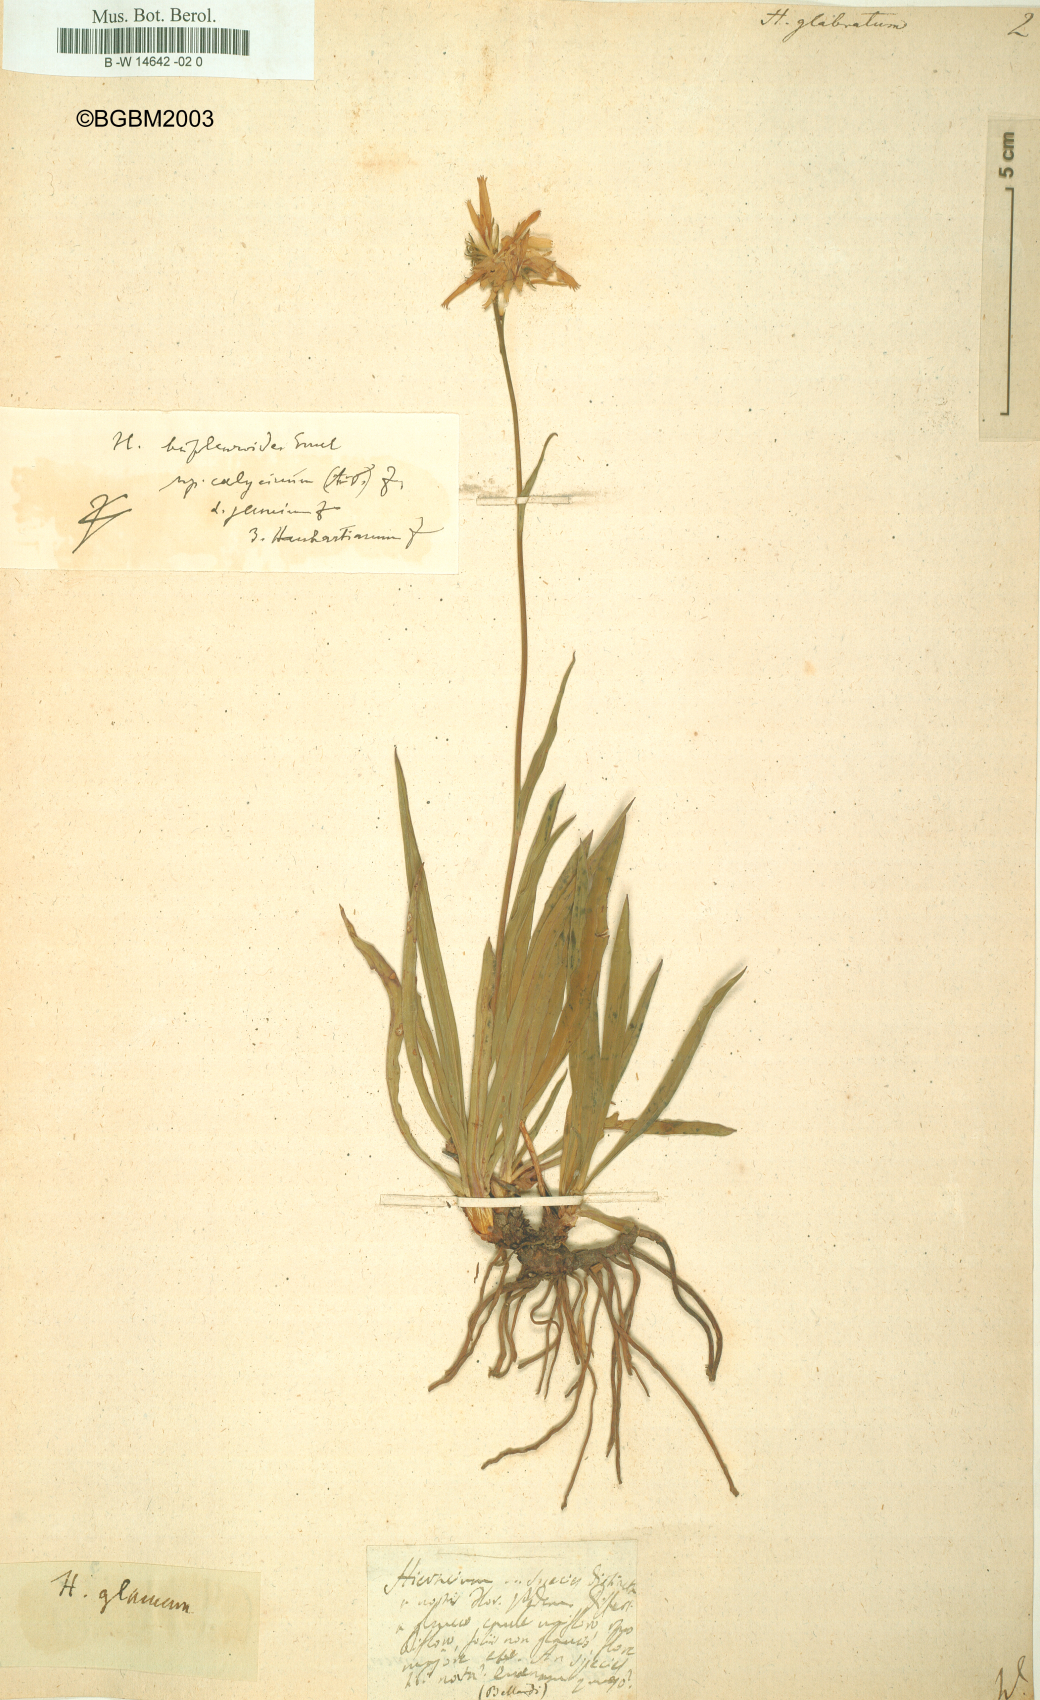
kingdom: Plantae
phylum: Tracheophyta
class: Magnoliopsida
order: Asterales
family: Asteraceae
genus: Hieracium
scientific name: Hieracium glabratum
